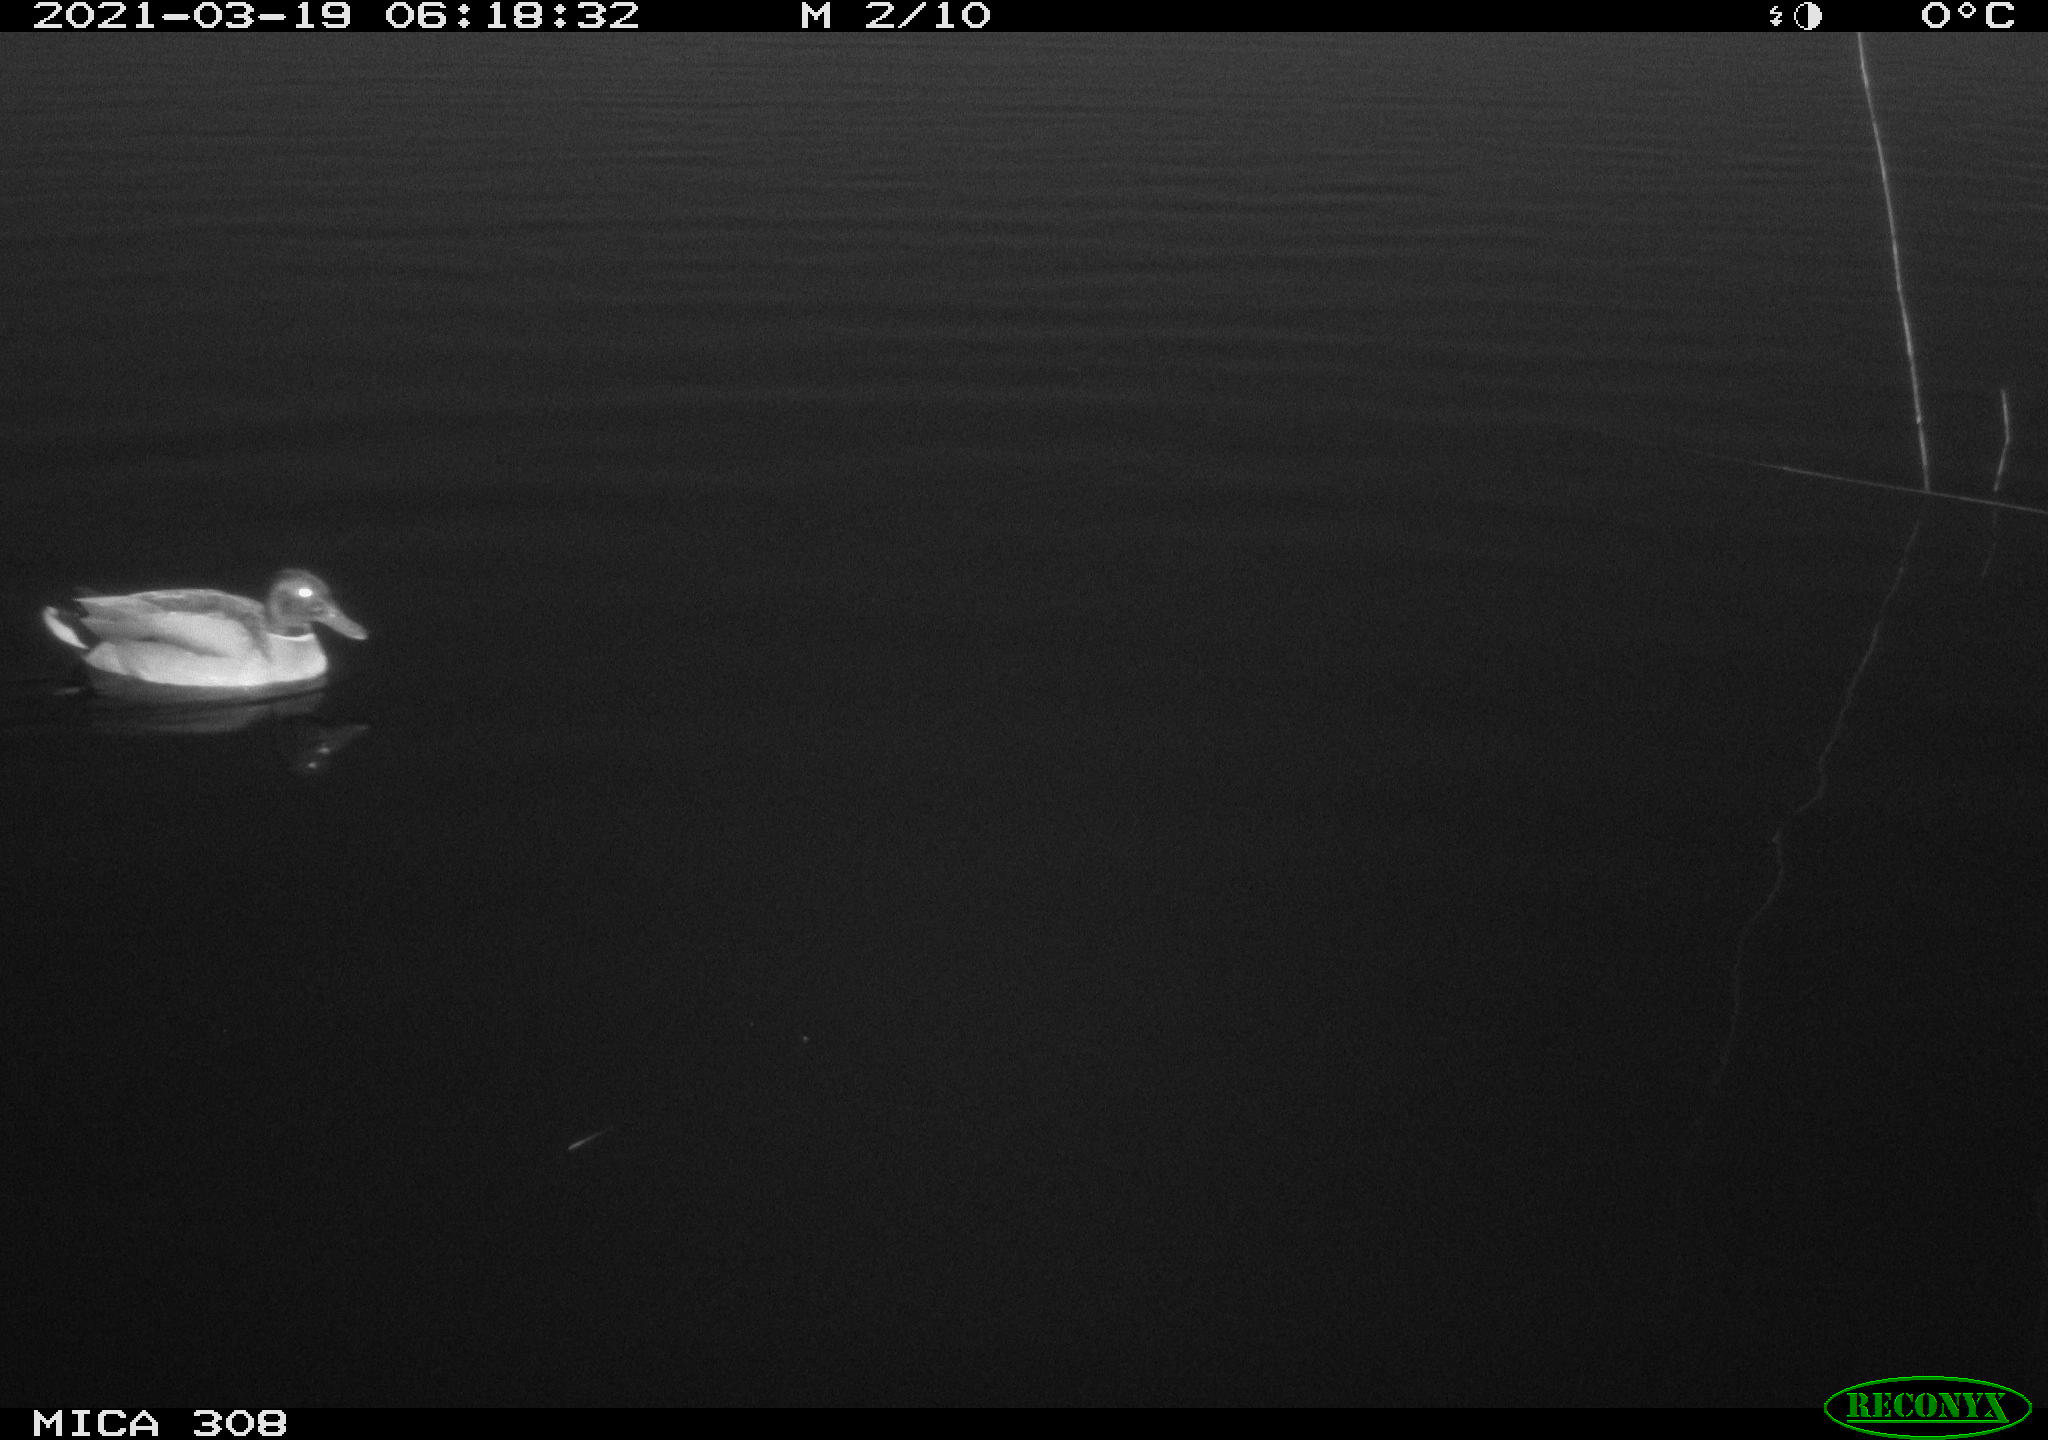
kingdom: Animalia
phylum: Chordata
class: Aves
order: Anseriformes
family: Anatidae
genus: Anas
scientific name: Anas platyrhynchos
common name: Mallard
